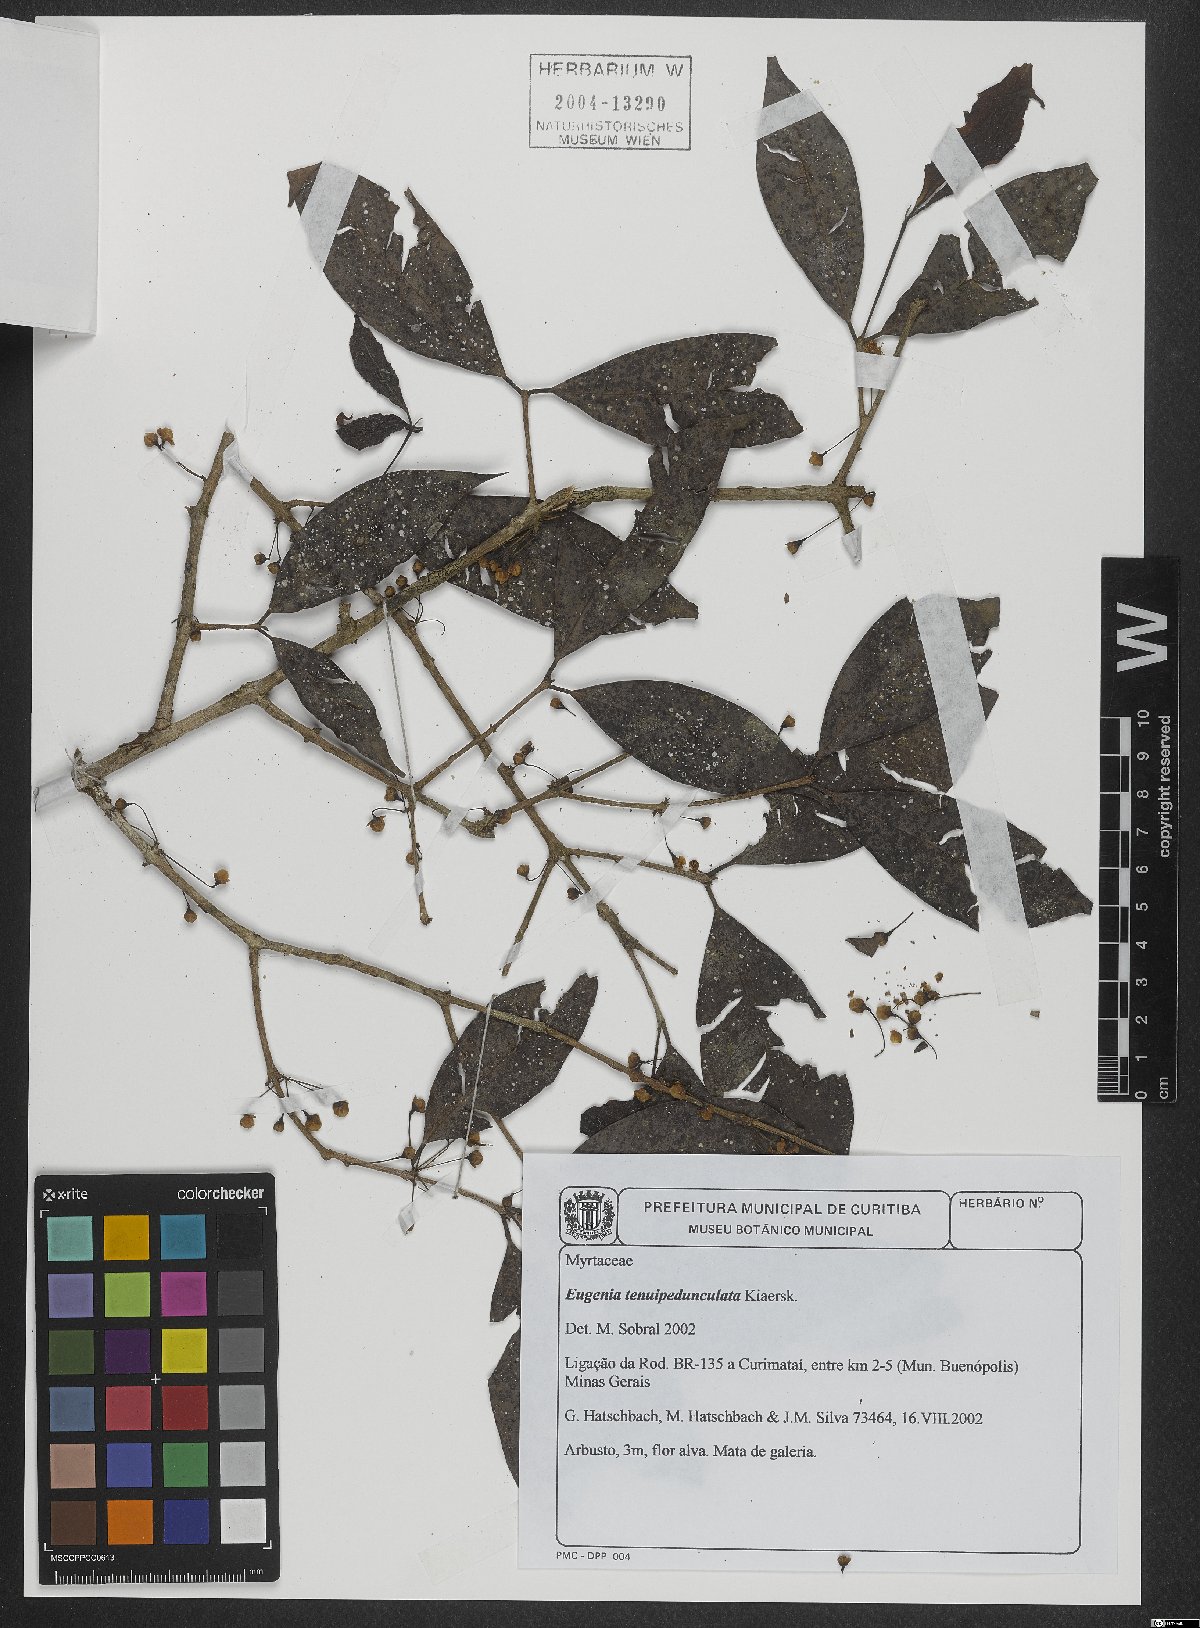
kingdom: Plantae
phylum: Tracheophyta
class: Magnoliopsida
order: Myrtales
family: Myrtaceae
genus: Eugenia
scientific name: Eugenia tenuipedunculata
